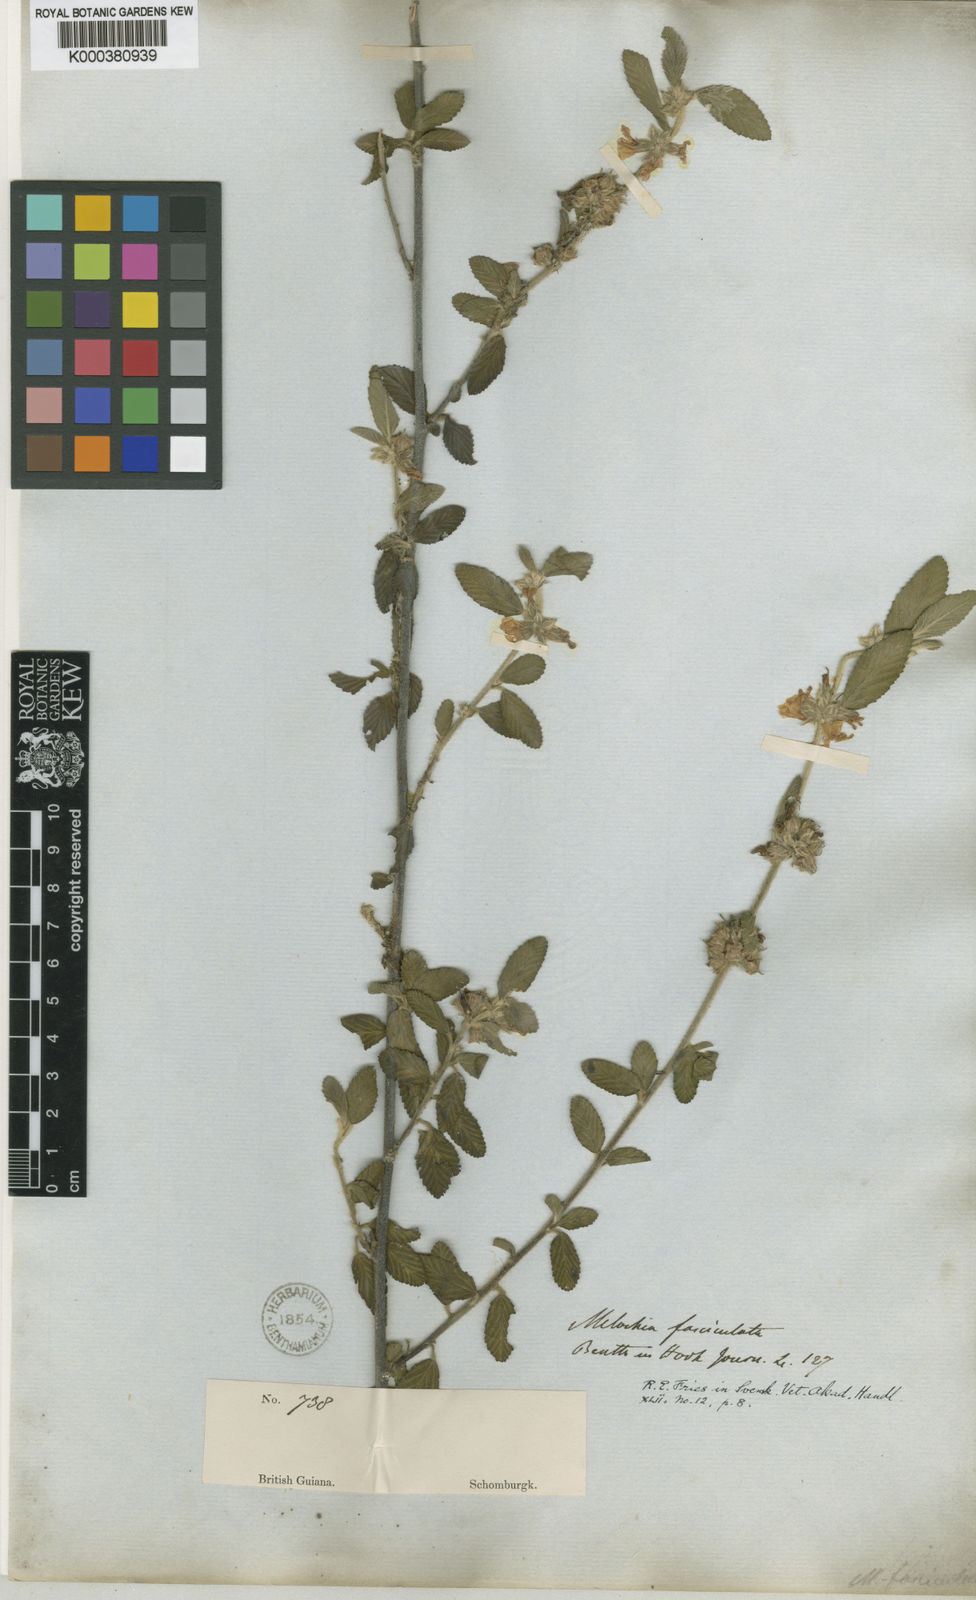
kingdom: Plantae
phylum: Tracheophyta
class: Magnoliopsida
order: Malvales
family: Malvaceae
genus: Melochia
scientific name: Melochia parvifolia
